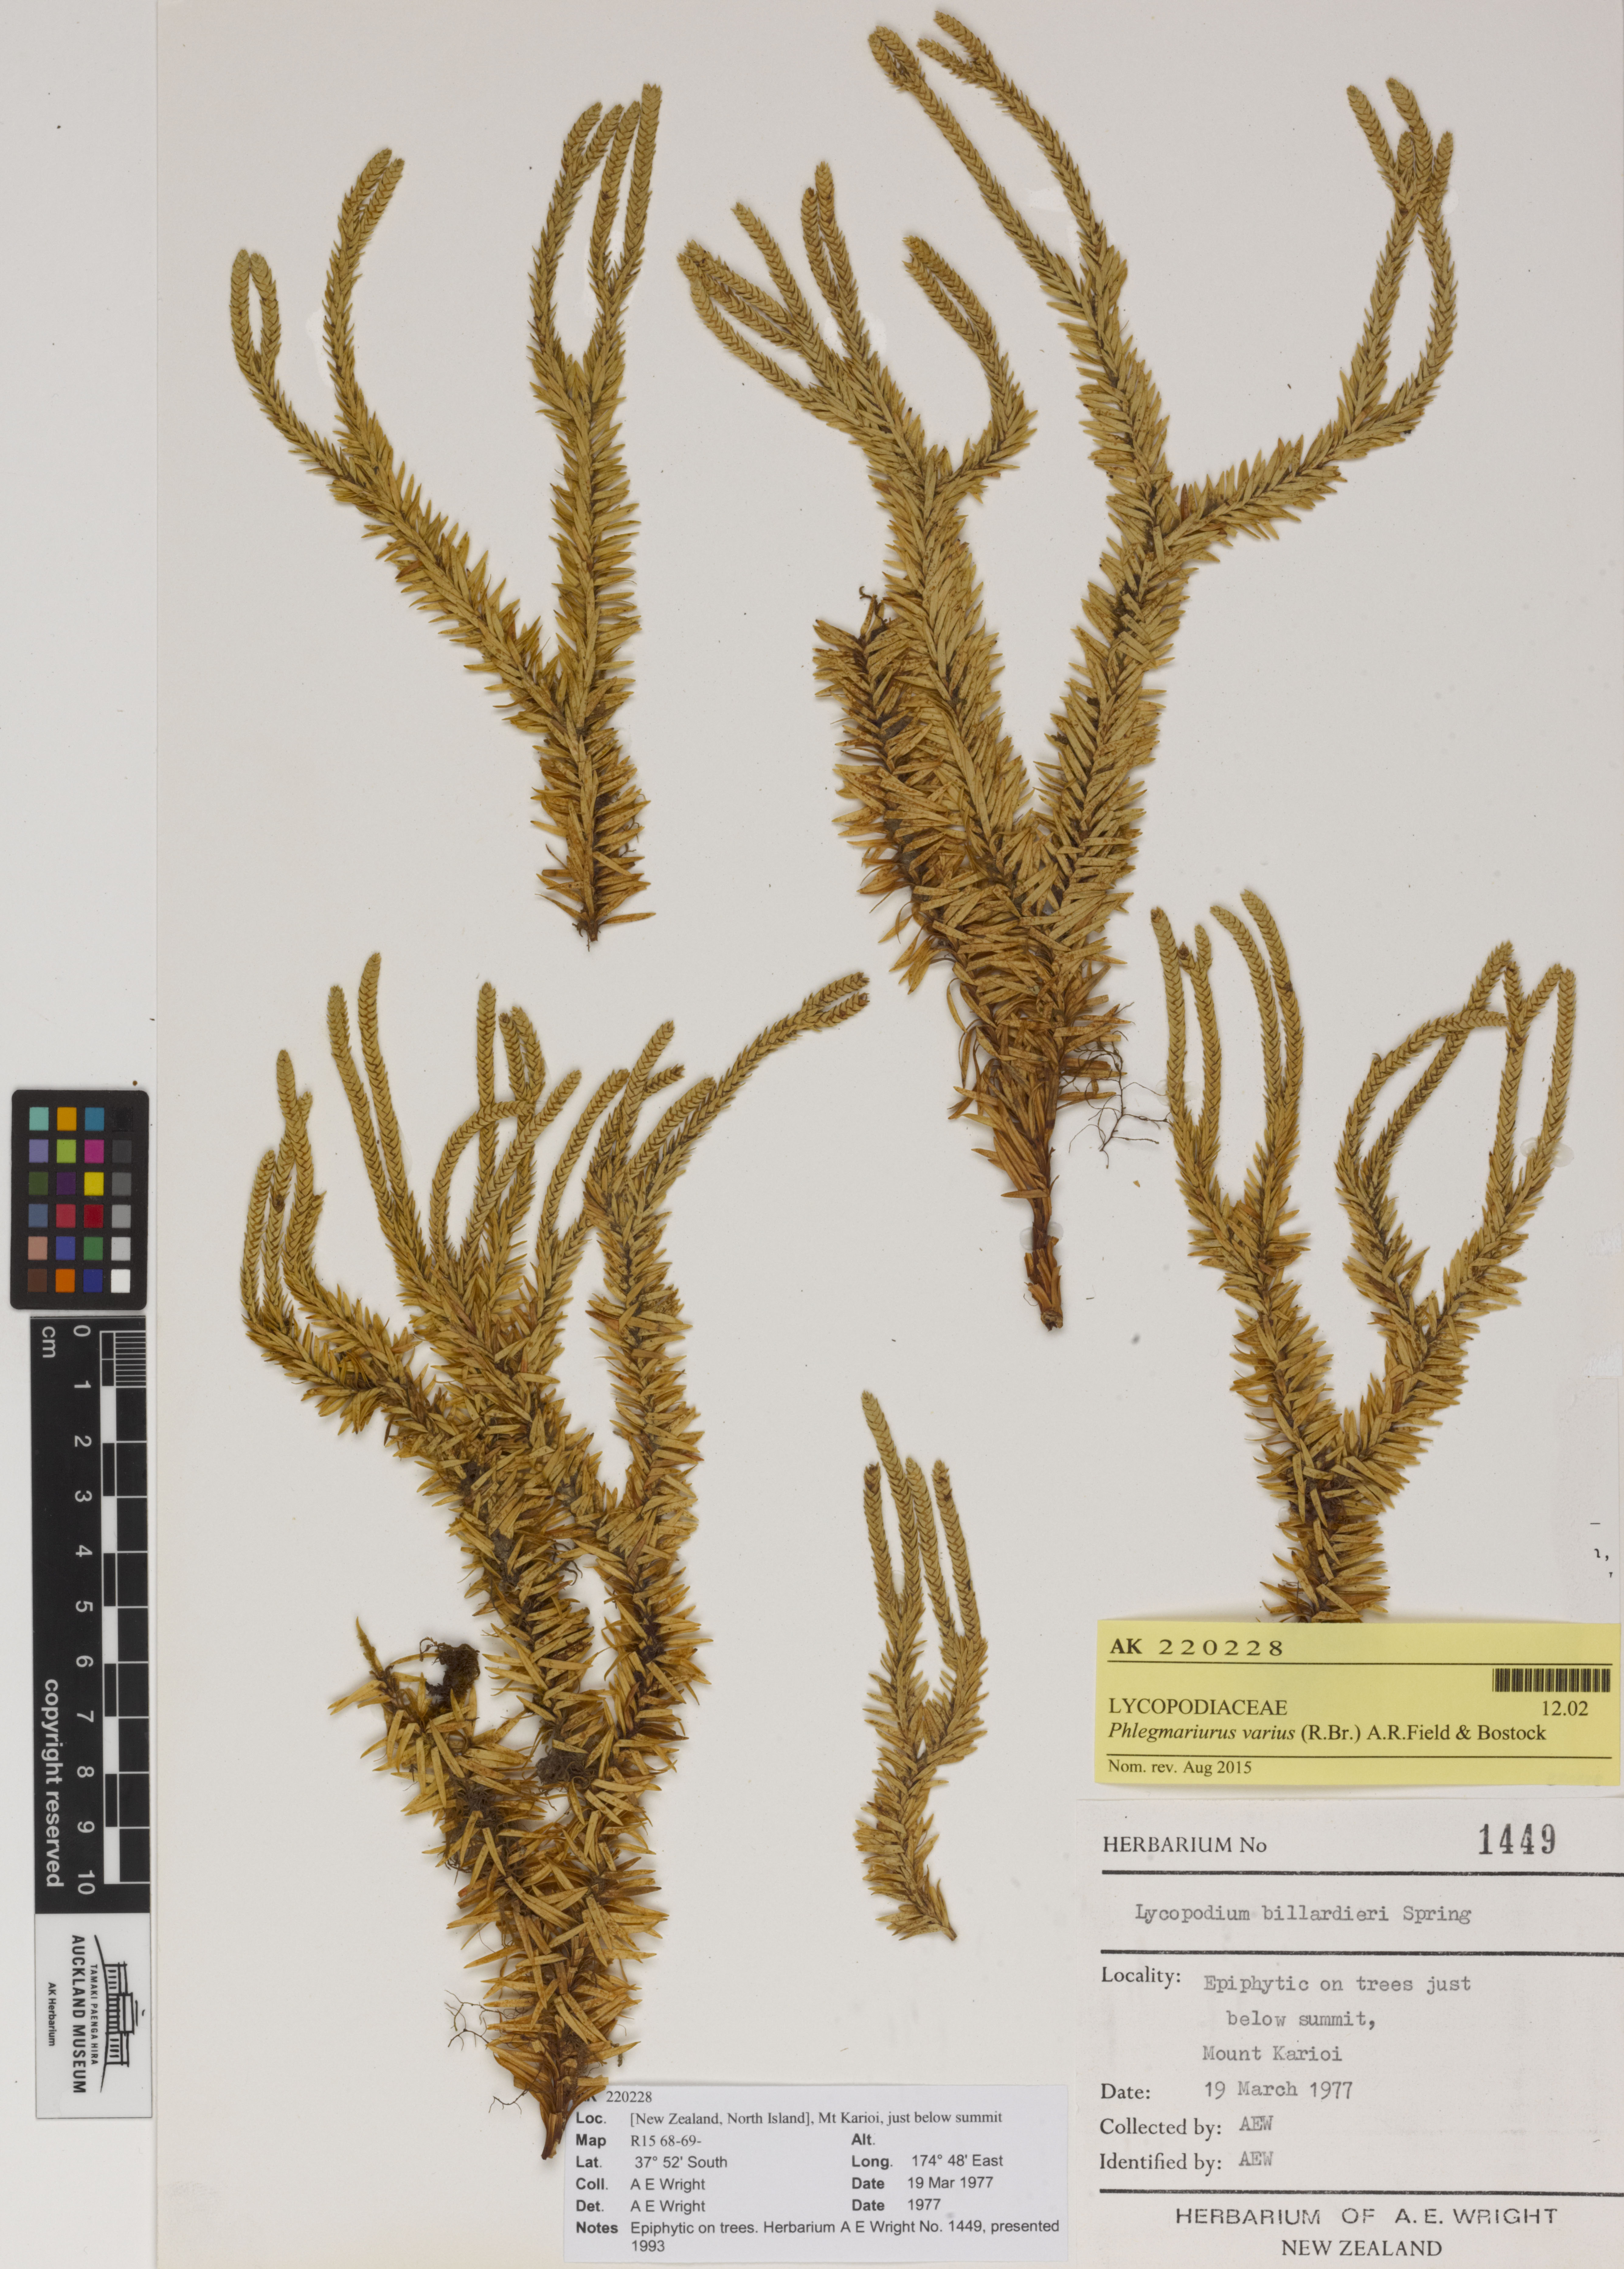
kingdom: Plantae
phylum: Tracheophyta
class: Lycopodiopsida
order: Lycopodiales
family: Lycopodiaceae
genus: Phlegmariurus
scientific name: Phlegmariurus varius
